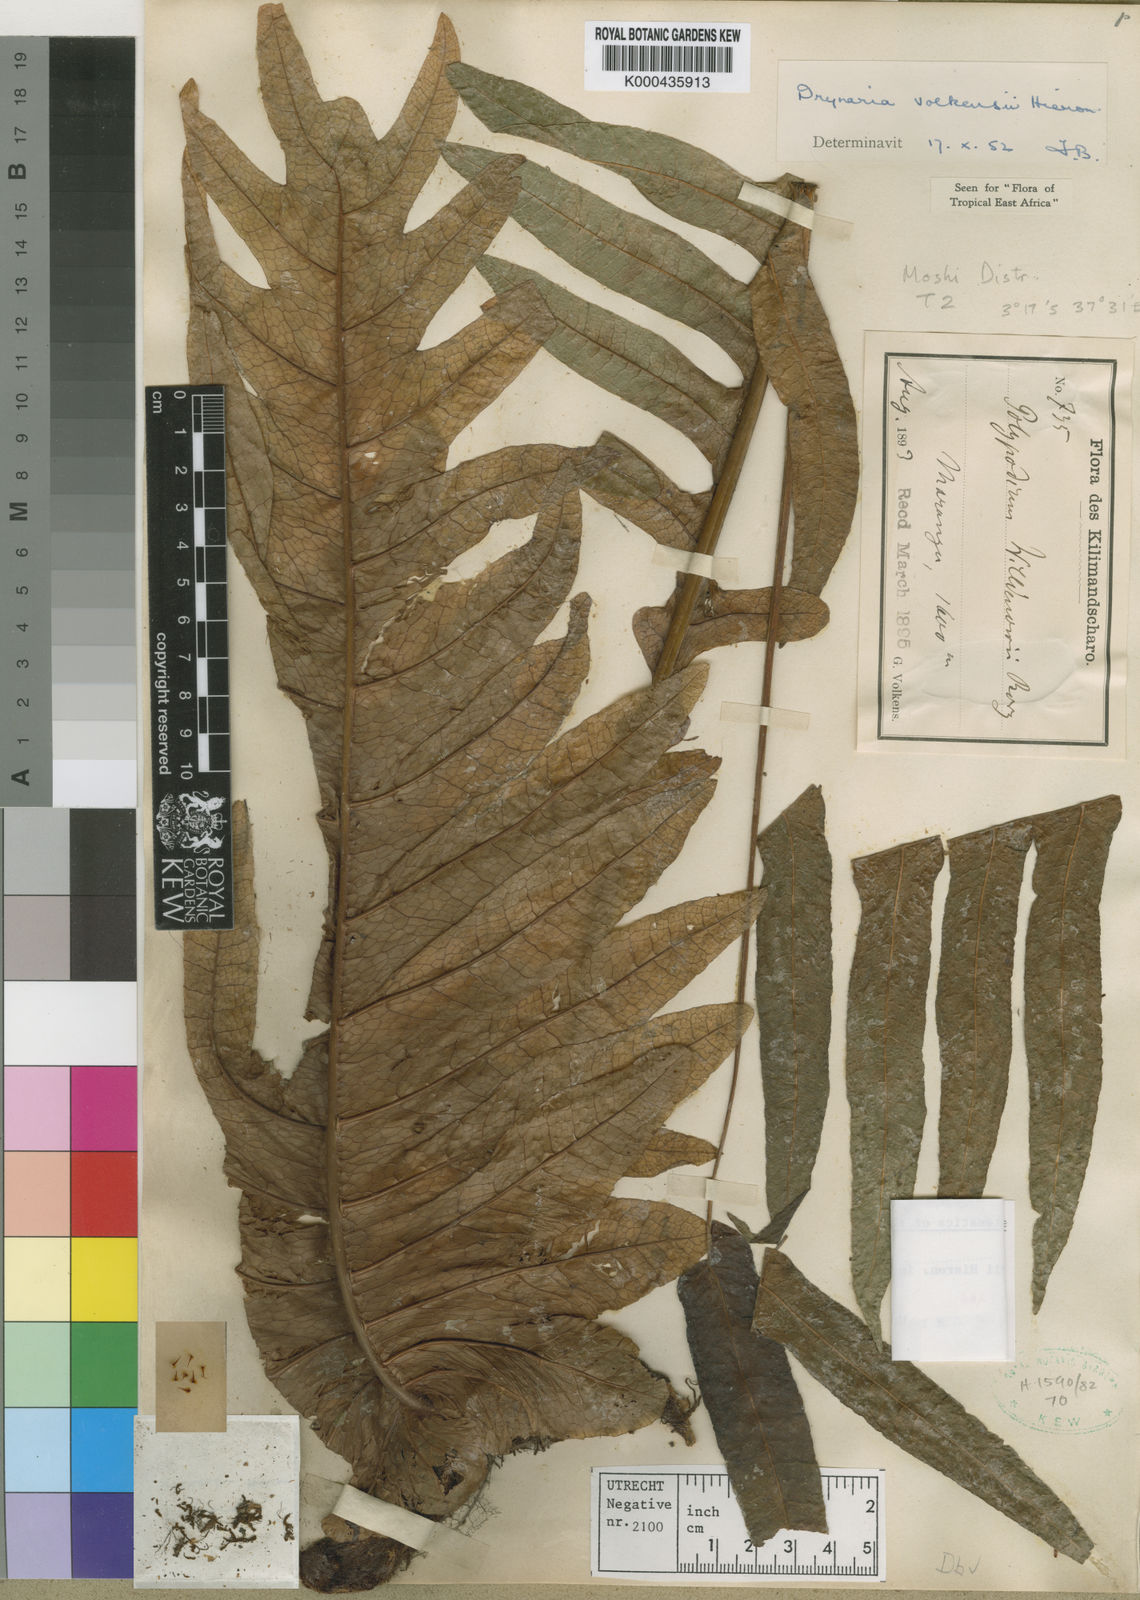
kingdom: Plantae
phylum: Tracheophyta
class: Polypodiopsida
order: Polypodiales
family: Polypodiaceae
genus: Drynaria
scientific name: Drynaria volkensii
